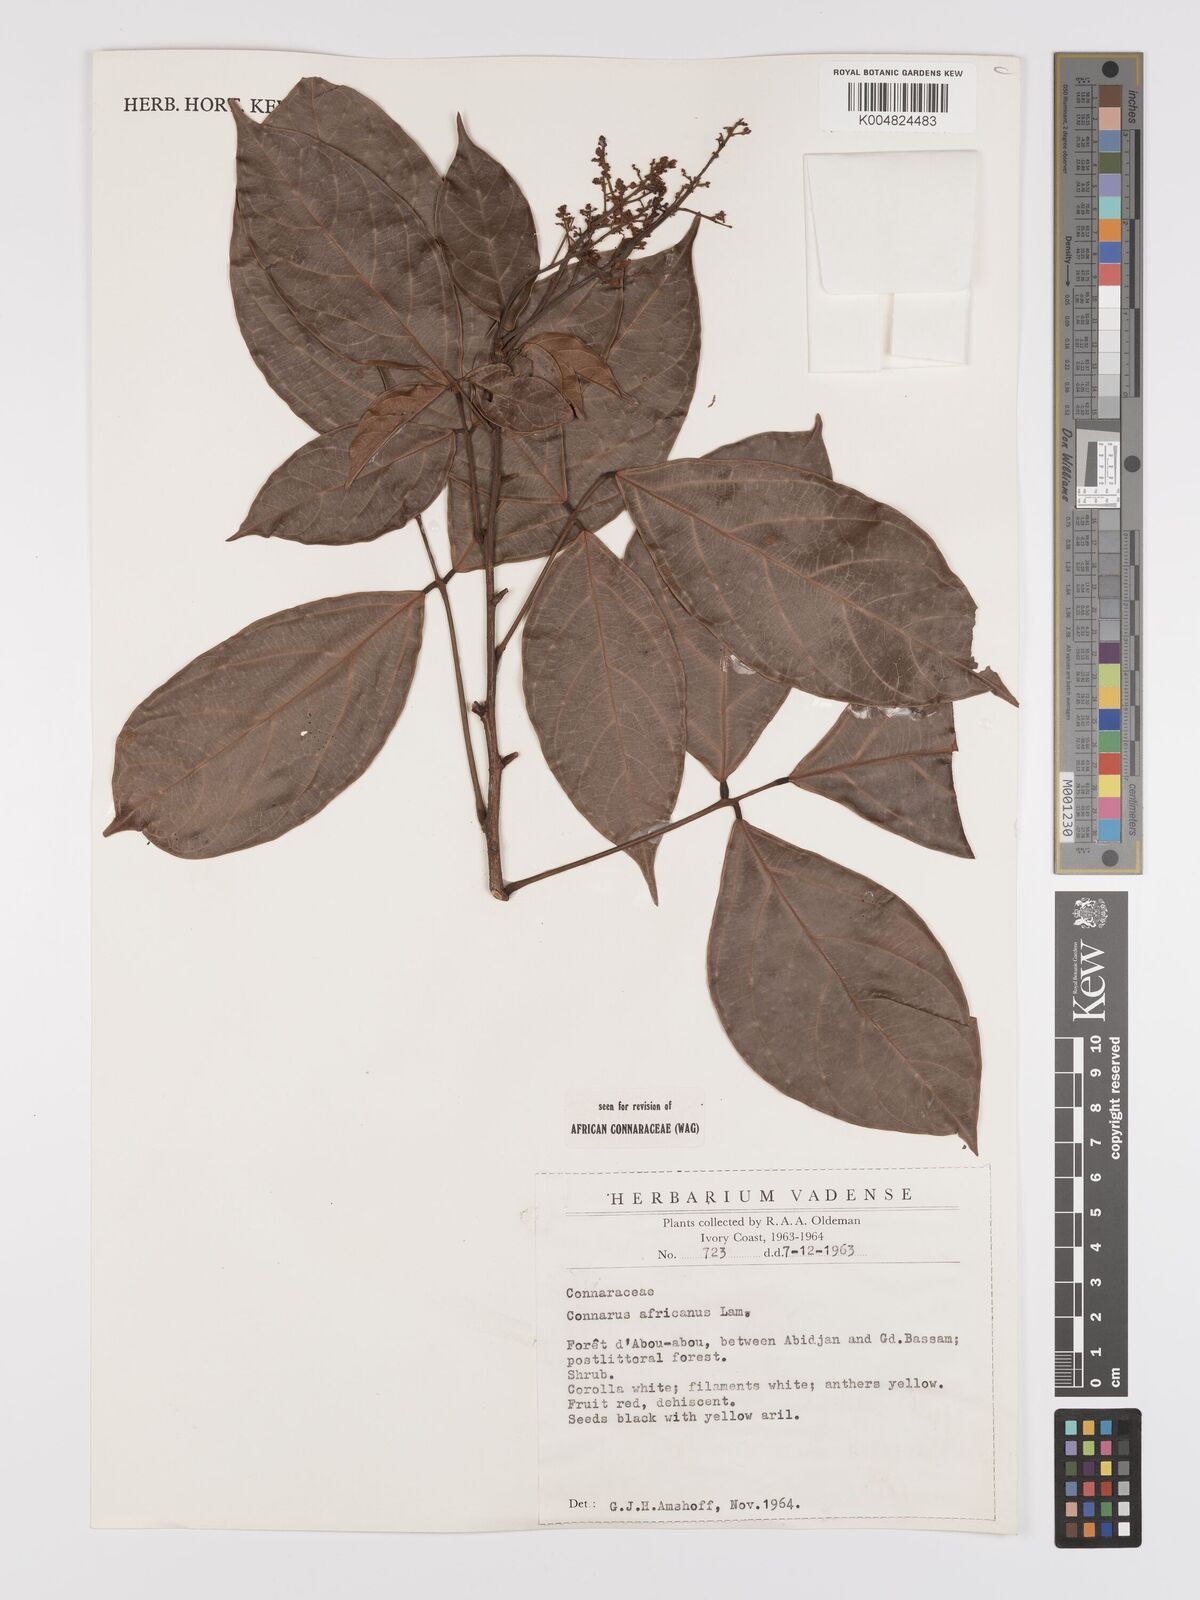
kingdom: Plantae
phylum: Tracheophyta
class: Magnoliopsida
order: Oxalidales
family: Connaraceae
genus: Connarus
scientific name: Connarus africanus
